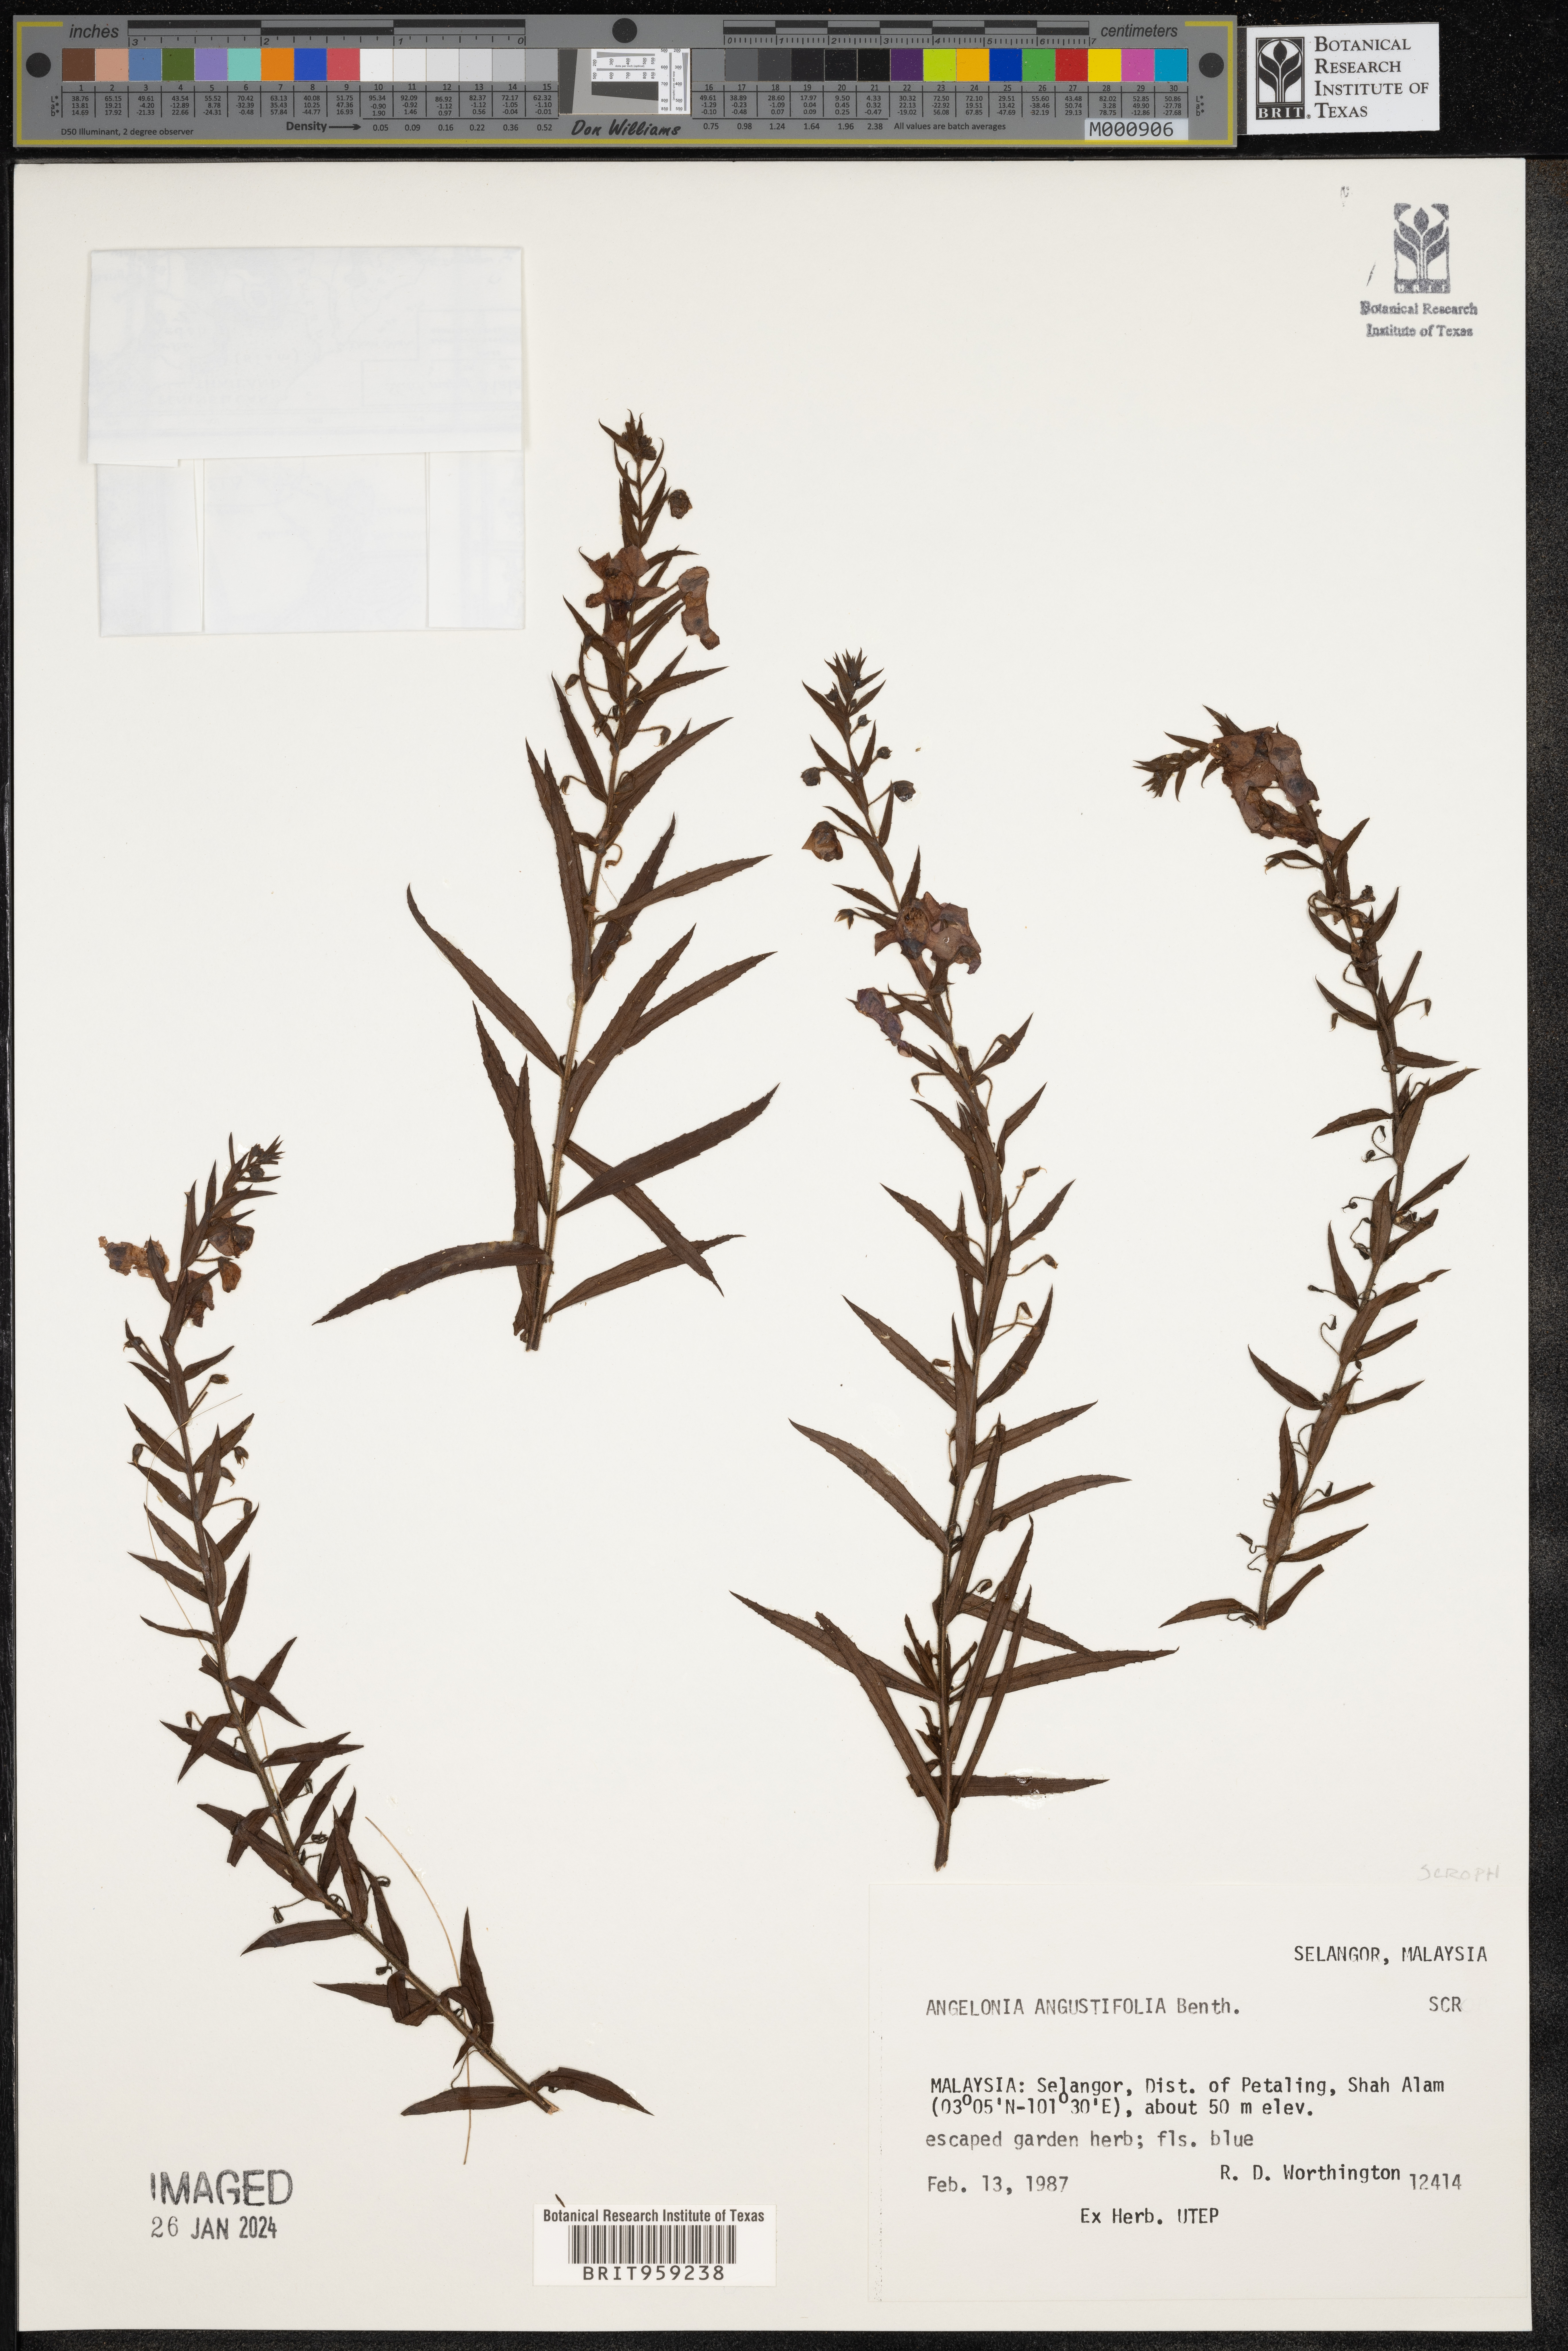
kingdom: Plantae
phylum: Tracheophyta
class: Magnoliopsida
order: Lamiales
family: Plantaginaceae
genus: Angelonia
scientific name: Angelonia
